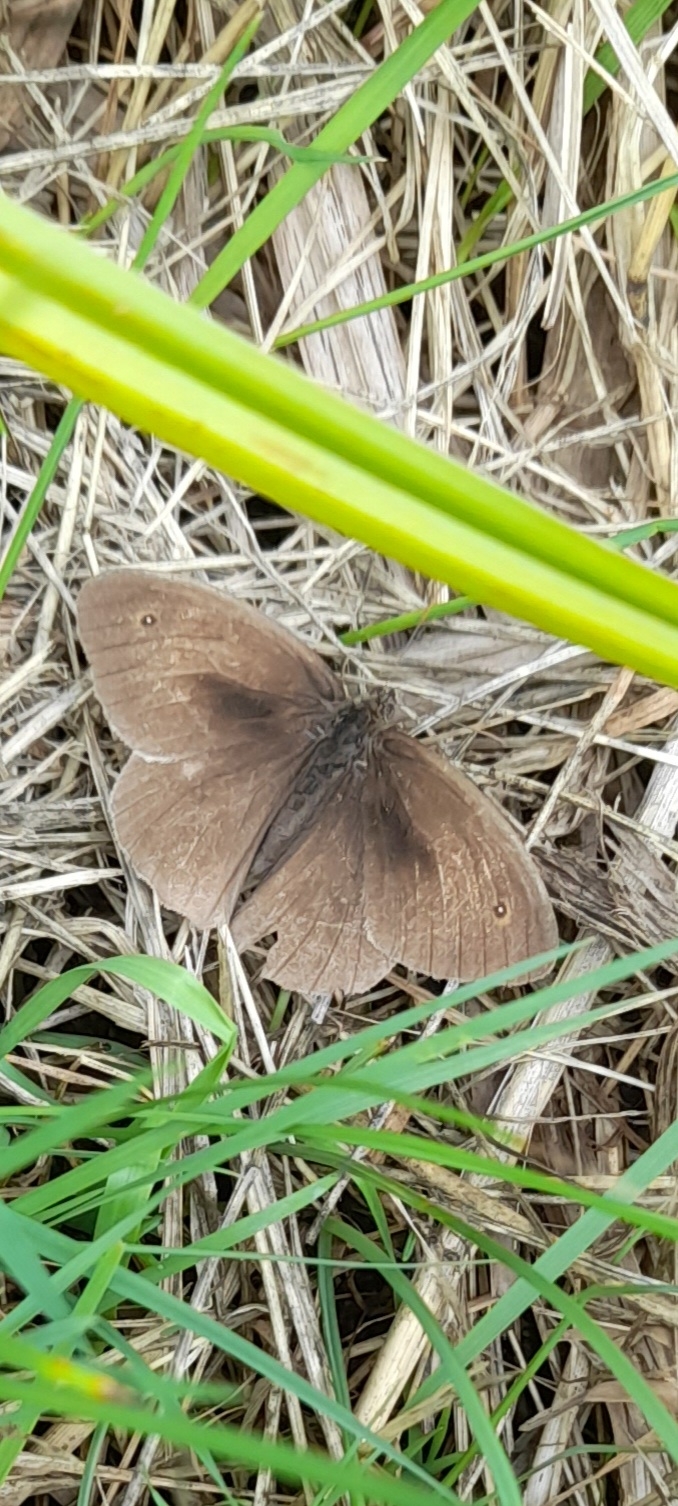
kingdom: Animalia
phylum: Arthropoda
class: Insecta
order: Lepidoptera
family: Nymphalidae
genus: Maniola
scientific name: Maniola jurtina
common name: Græsrandøje
